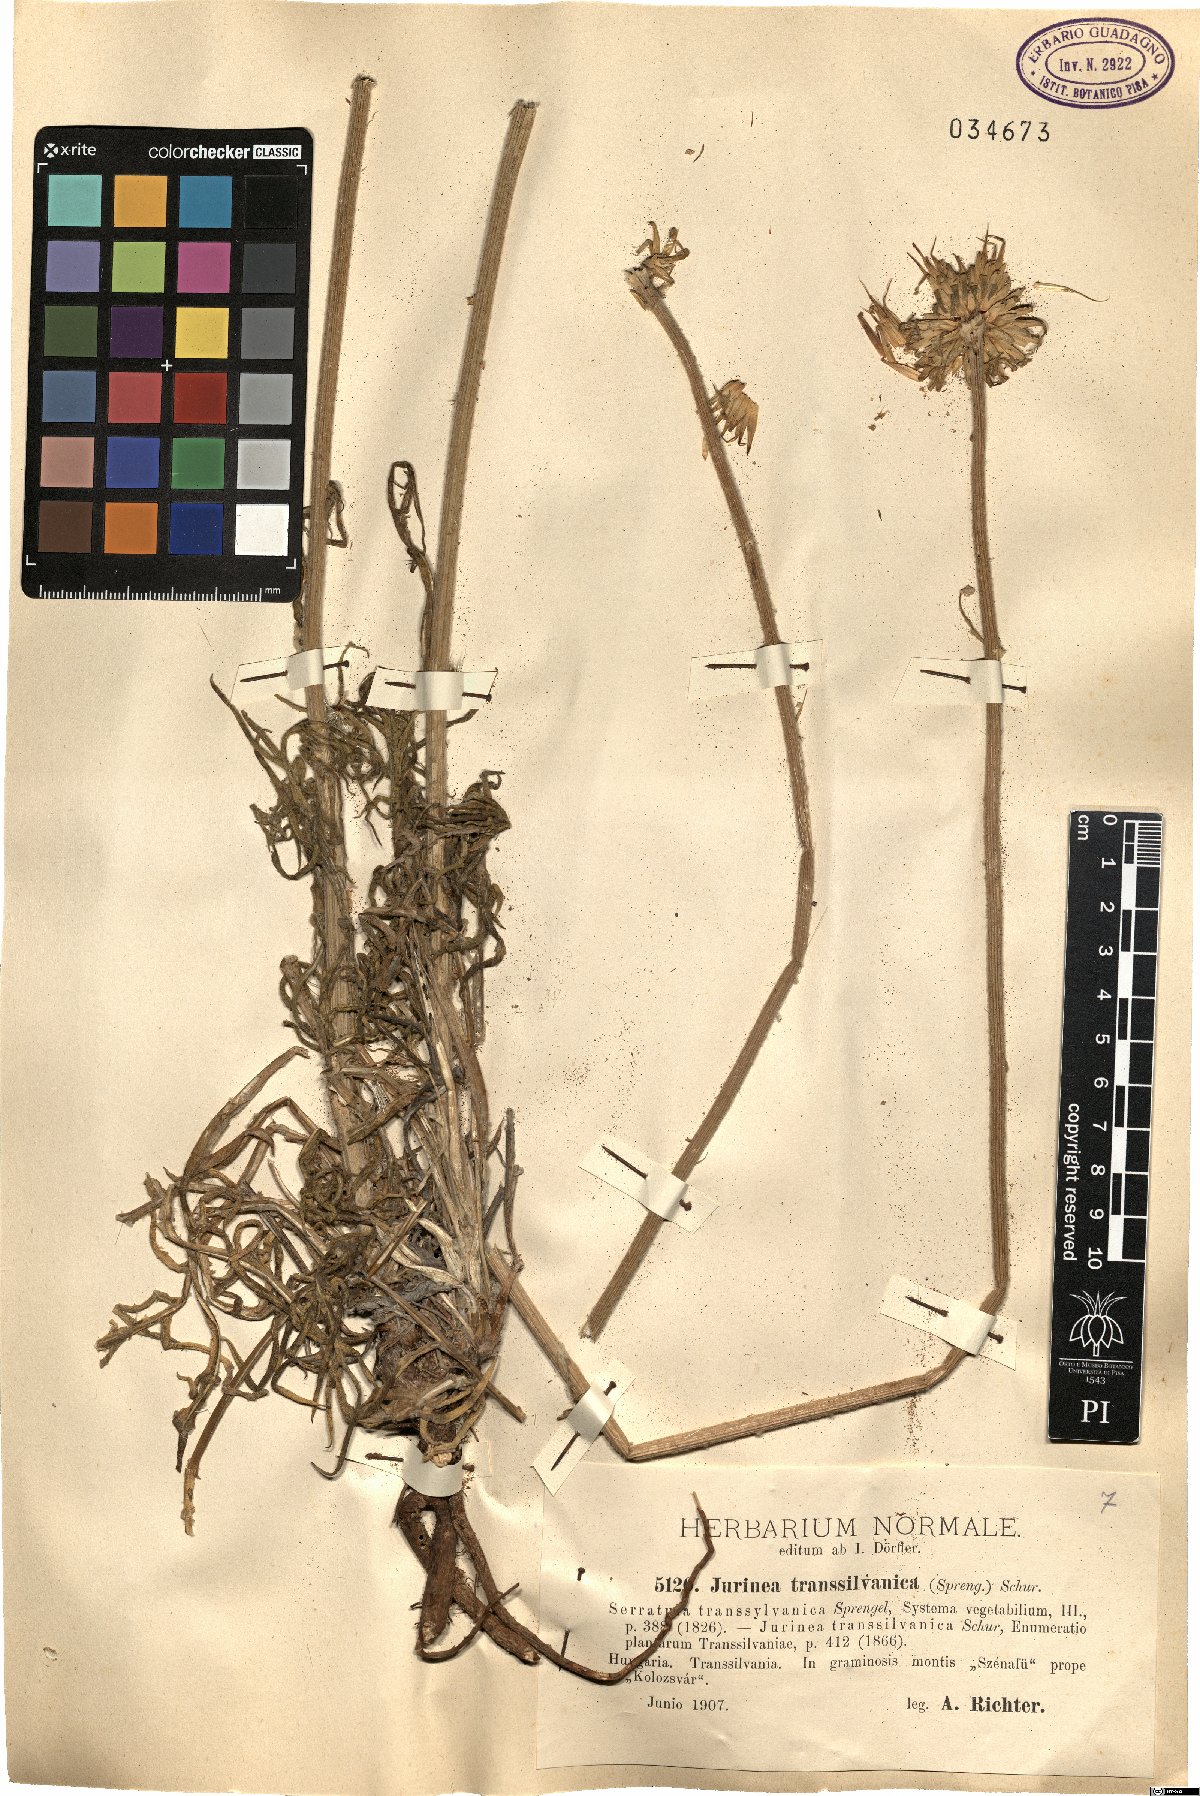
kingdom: Plantae
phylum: Tracheophyta
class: Magnoliopsida
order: Asterales
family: Asteraceae
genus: Jurinea
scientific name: Jurinea transsylvanica
